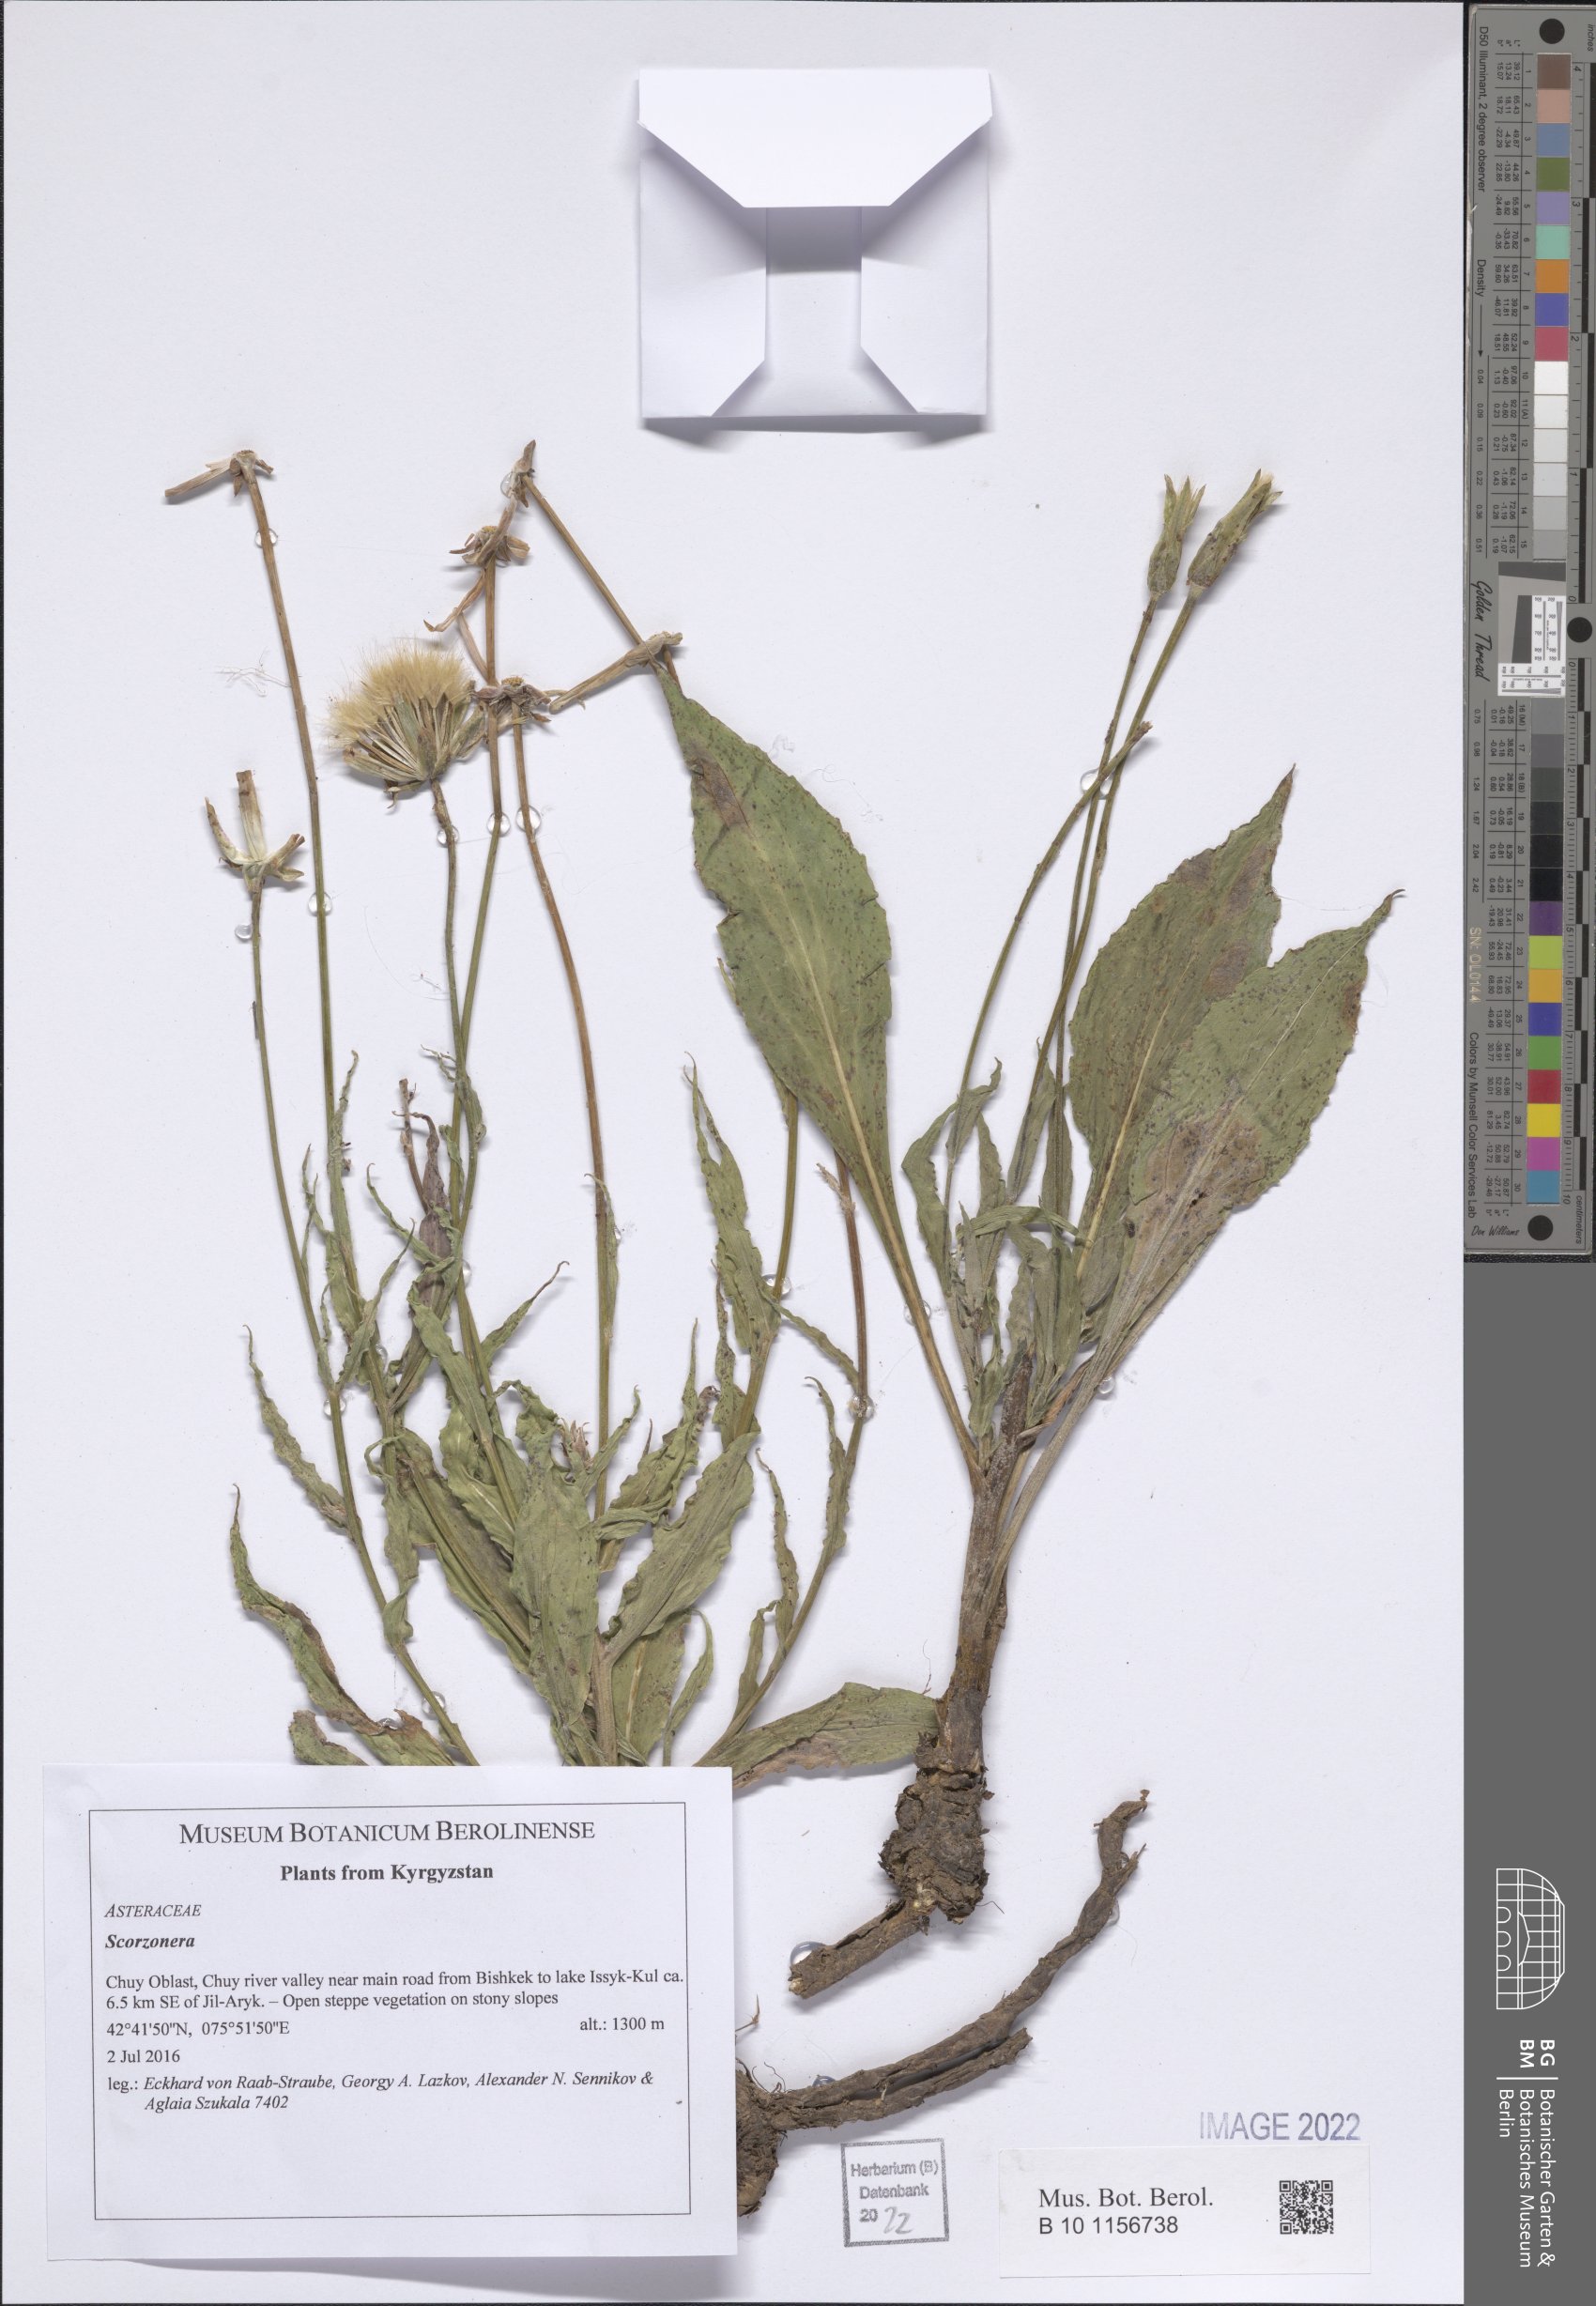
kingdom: Plantae
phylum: Tracheophyta
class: Magnoliopsida
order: Asterales
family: Asteraceae
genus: Scorzonera
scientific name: Scorzonera
